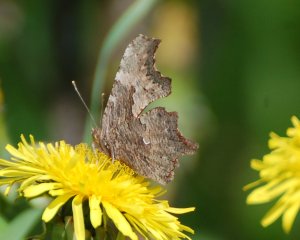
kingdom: Animalia
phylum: Arthropoda
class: Insecta
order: Lepidoptera
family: Nymphalidae
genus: Polygonia
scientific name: Polygonia progne
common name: Gray Comma
